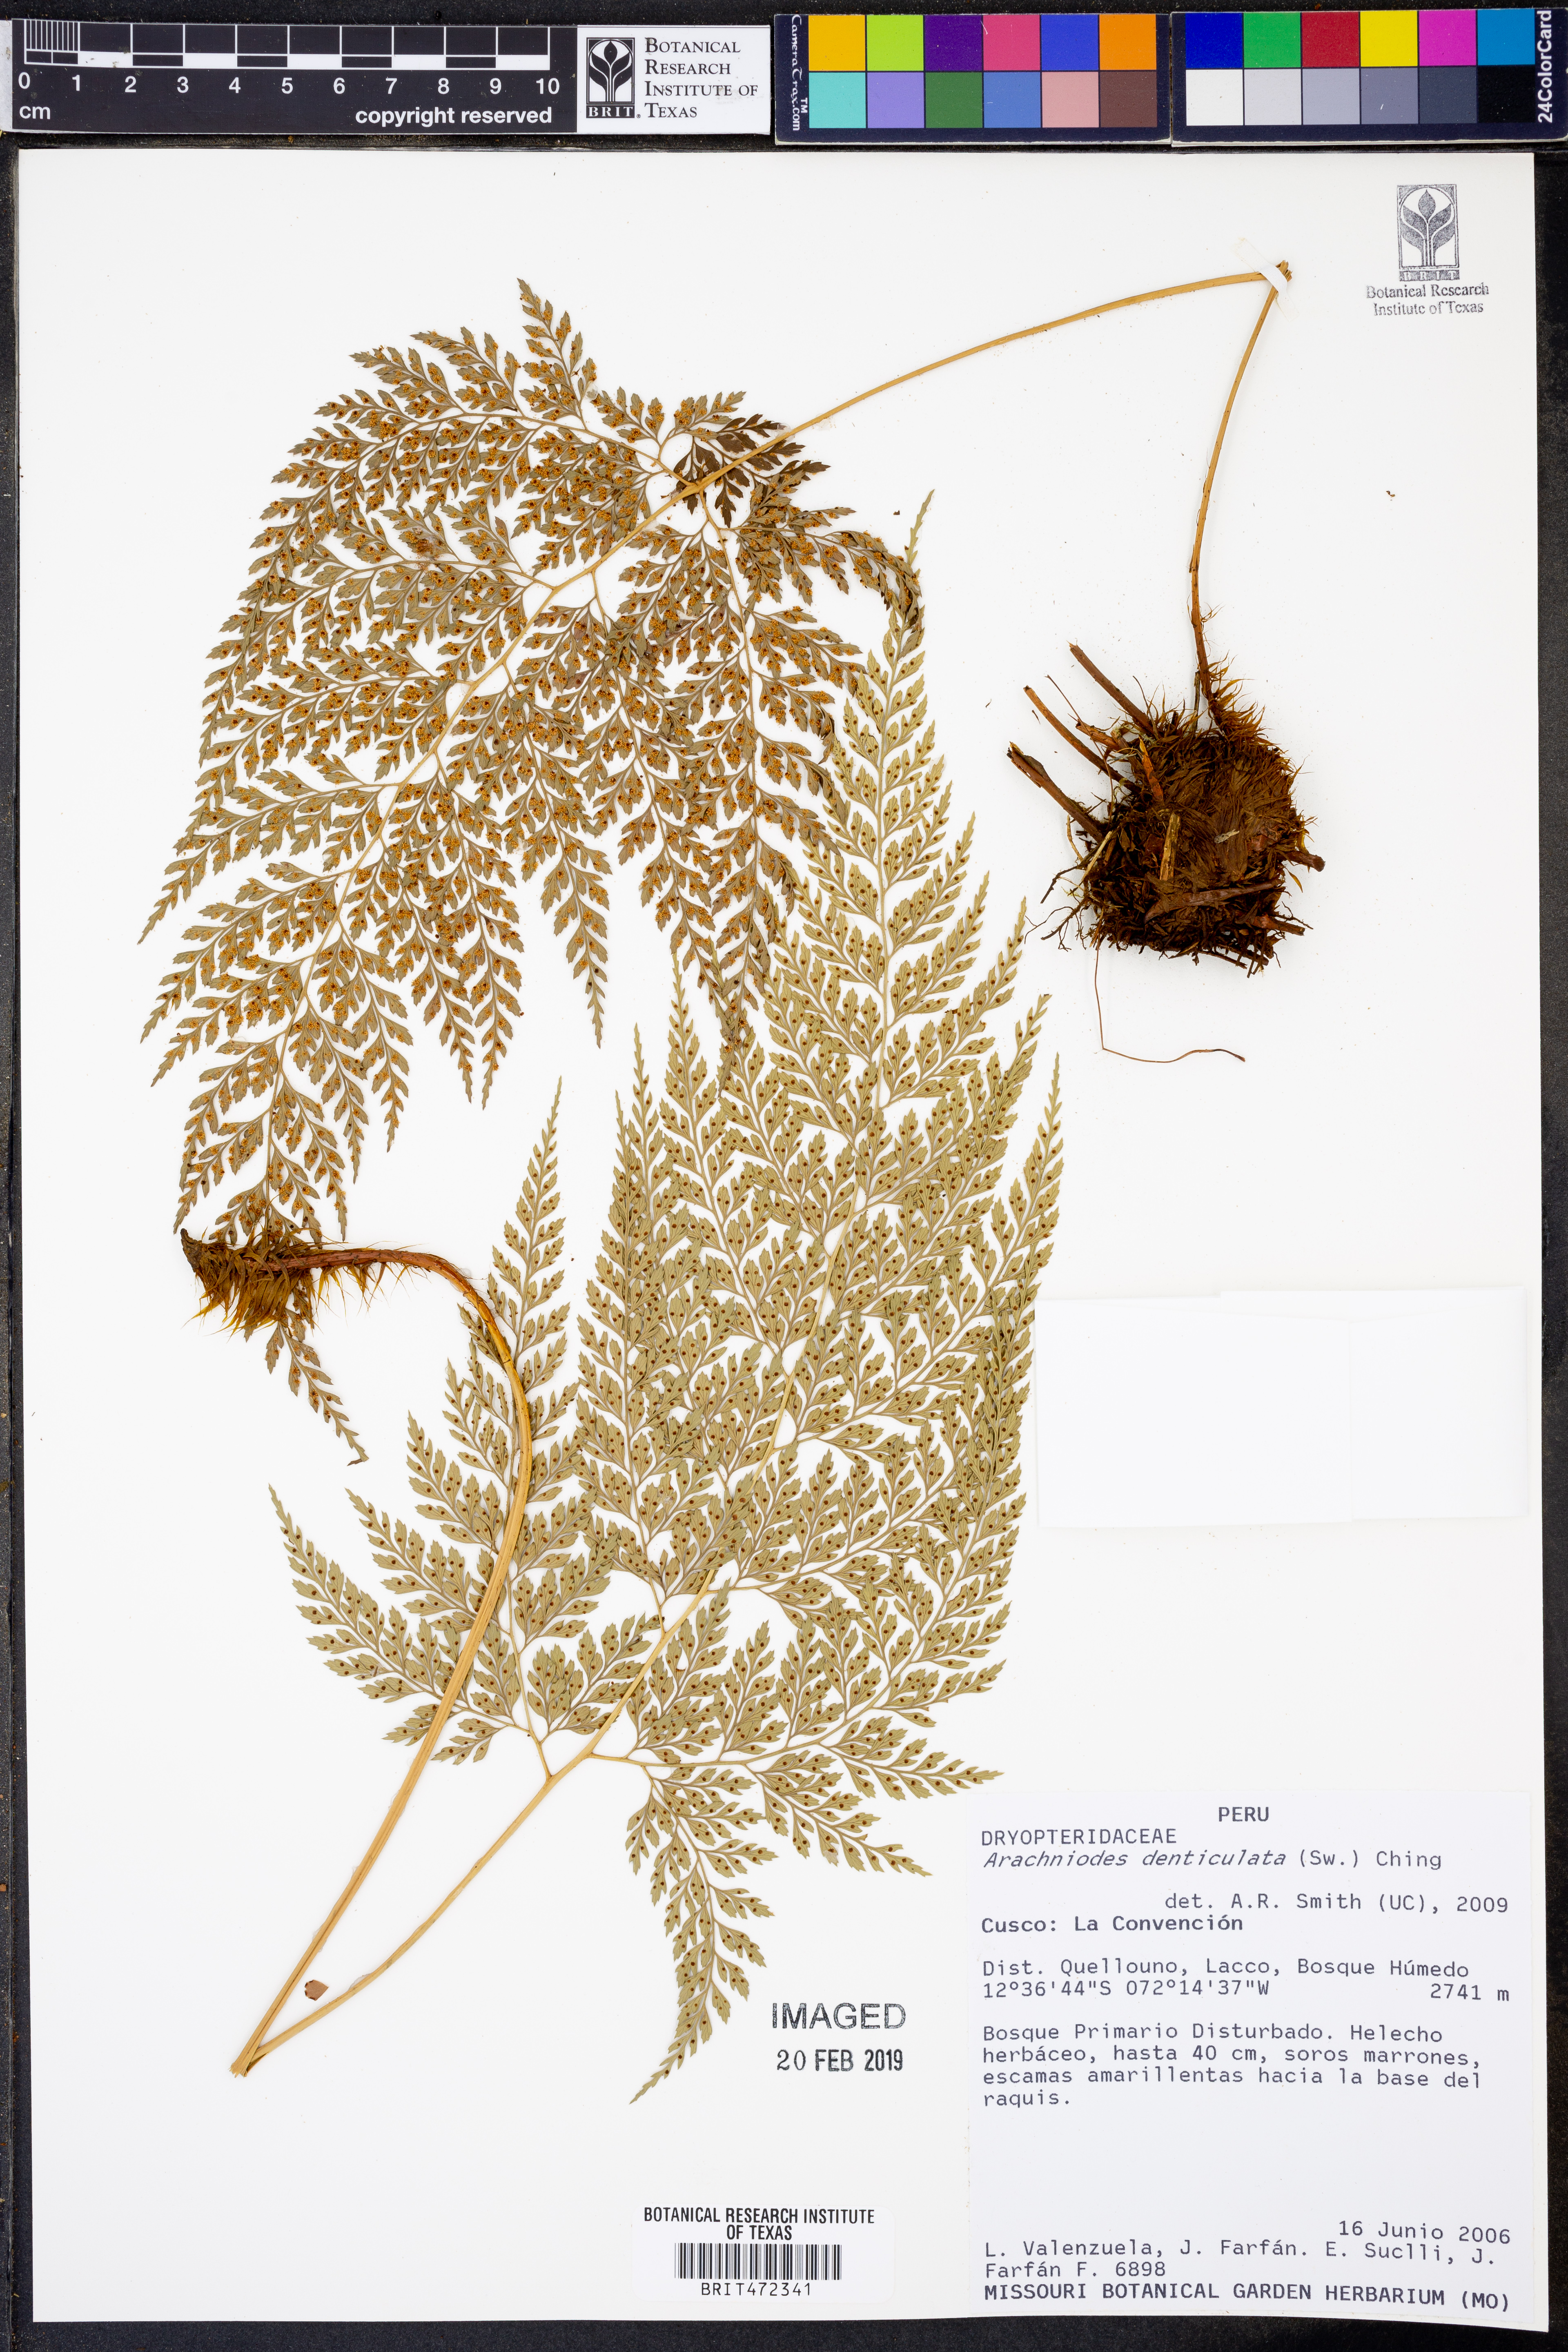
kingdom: Plantae
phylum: Tracheophyta
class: Polypodiopsida
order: Polypodiales
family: Dryopteridaceae
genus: Arachniodes
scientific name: Arachniodes denticulata
